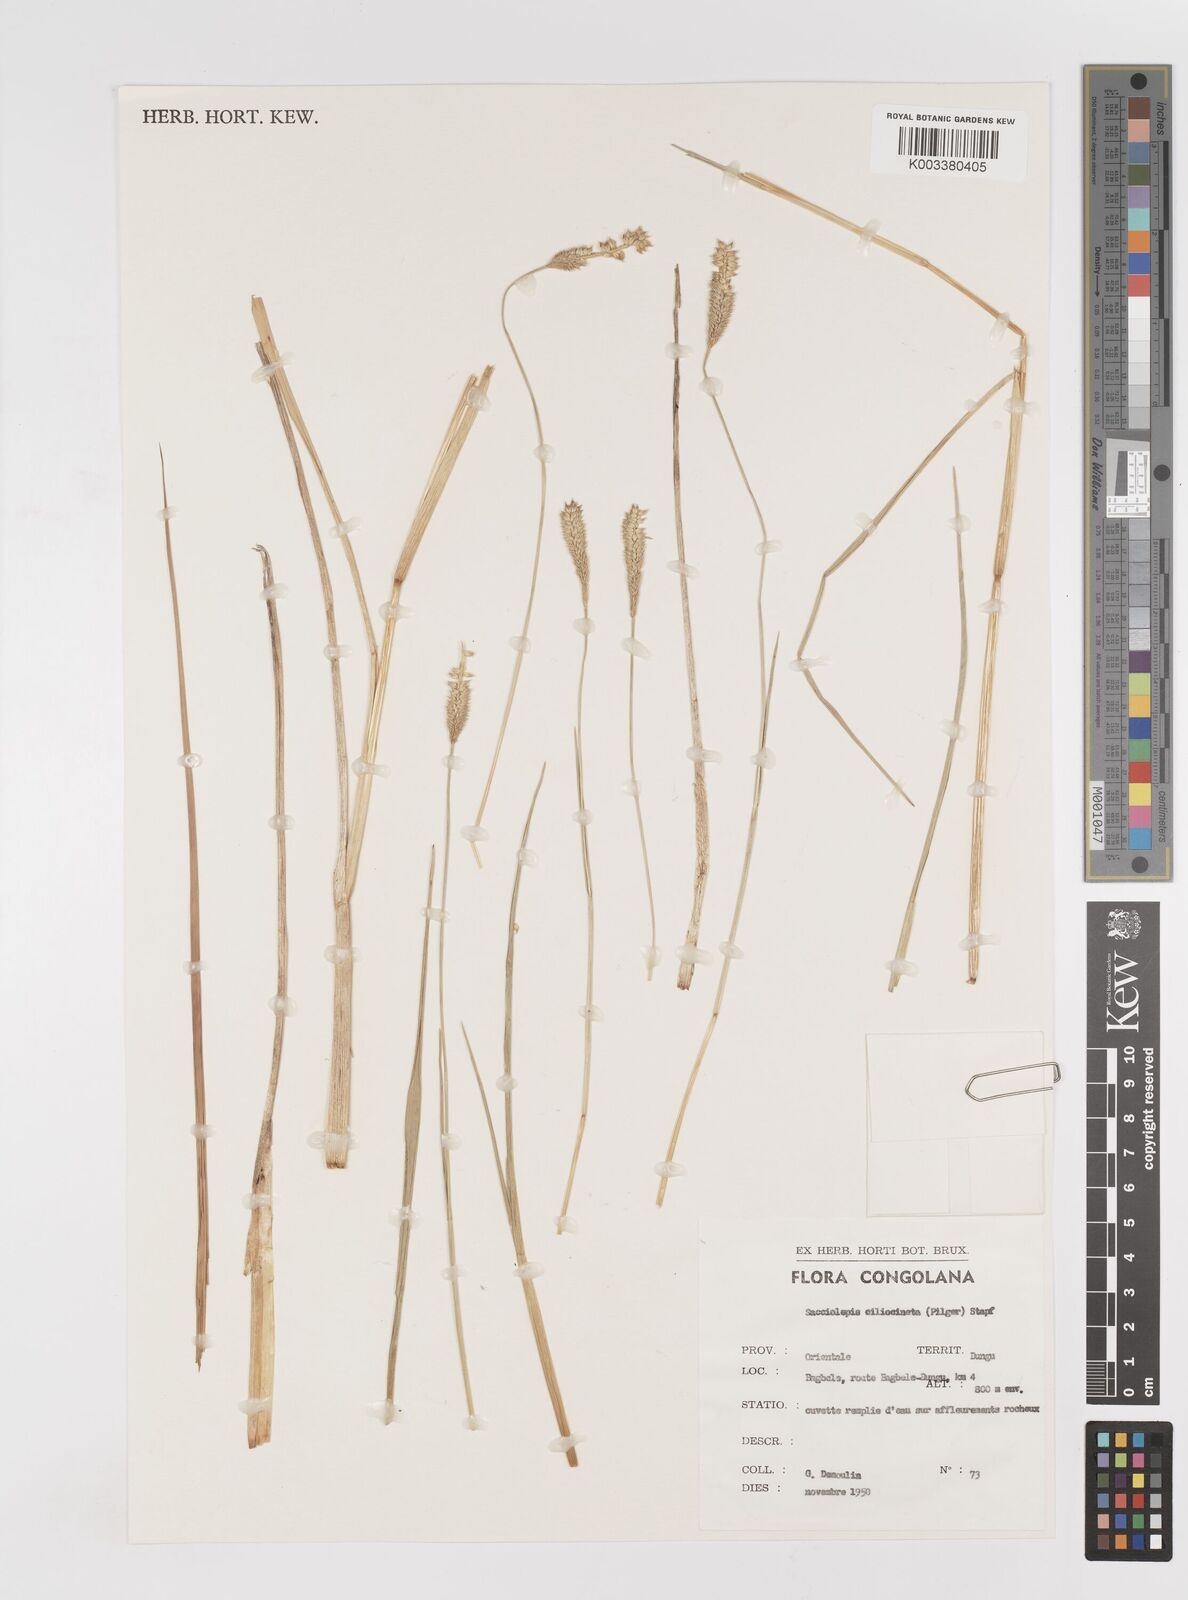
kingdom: Plantae
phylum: Tracheophyta
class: Liliopsida
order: Poales
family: Poaceae
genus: Sacciolepis
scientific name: Sacciolepis ciliocincta
